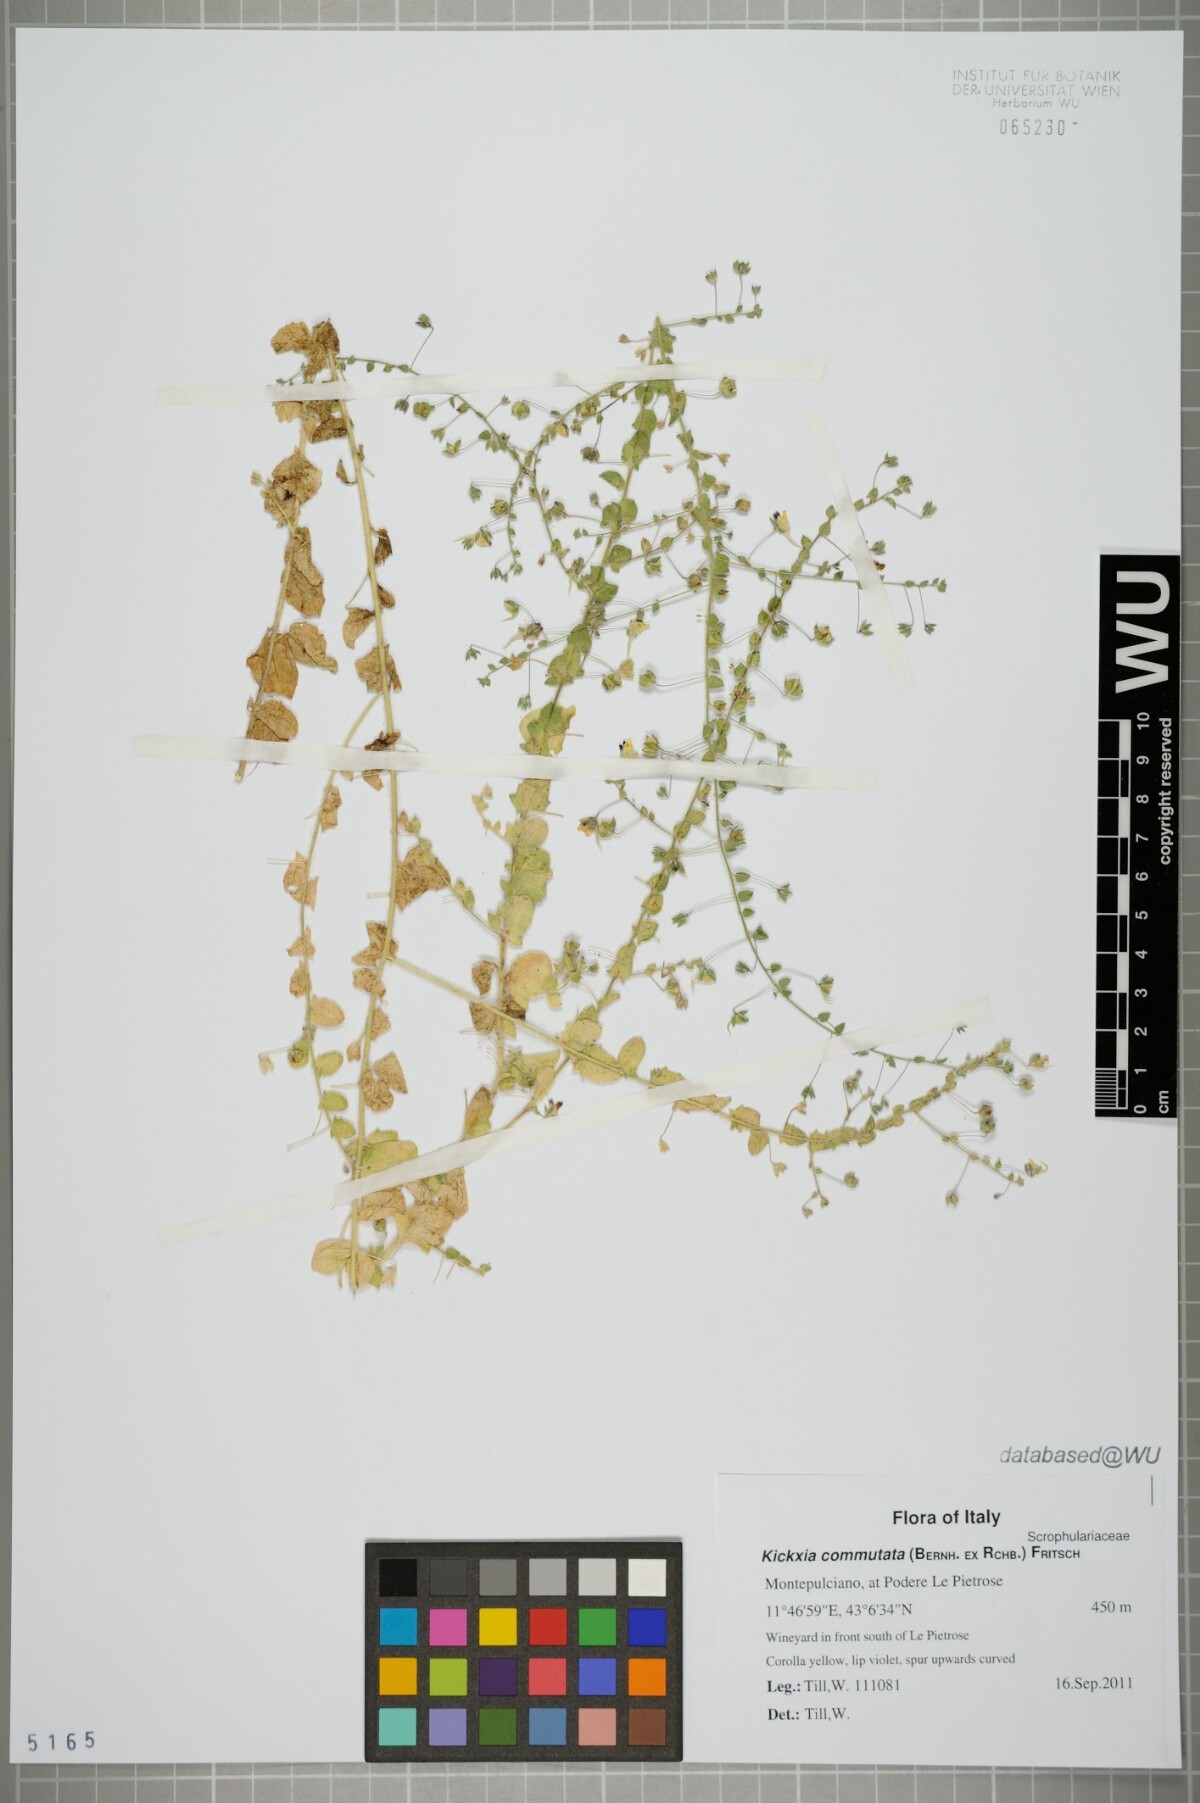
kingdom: Plantae
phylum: Tracheophyta
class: Magnoliopsida
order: Lamiales
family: Plantaginaceae
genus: Kickxia
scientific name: Kickxia commutata
